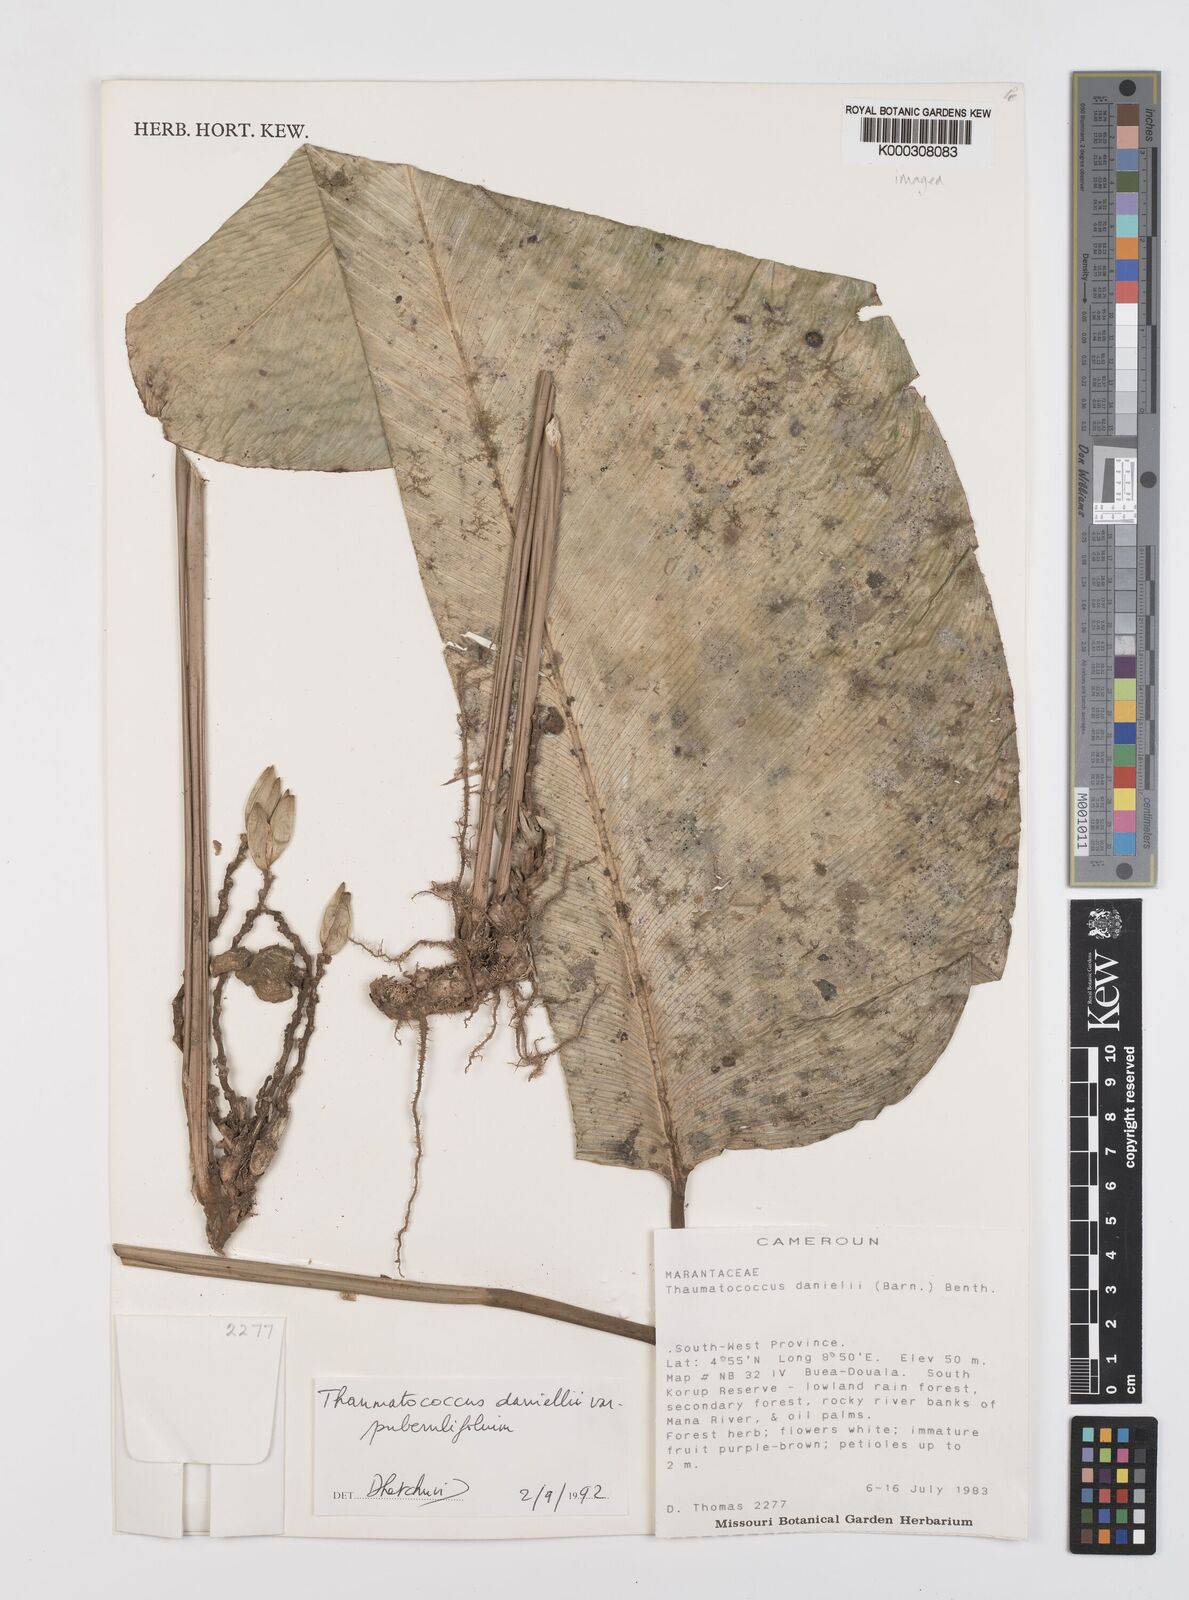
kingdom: Plantae
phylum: Tracheophyta
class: Liliopsida
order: Zingiberales
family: Marantaceae
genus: Thaumatococcus
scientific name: Thaumatococcus
